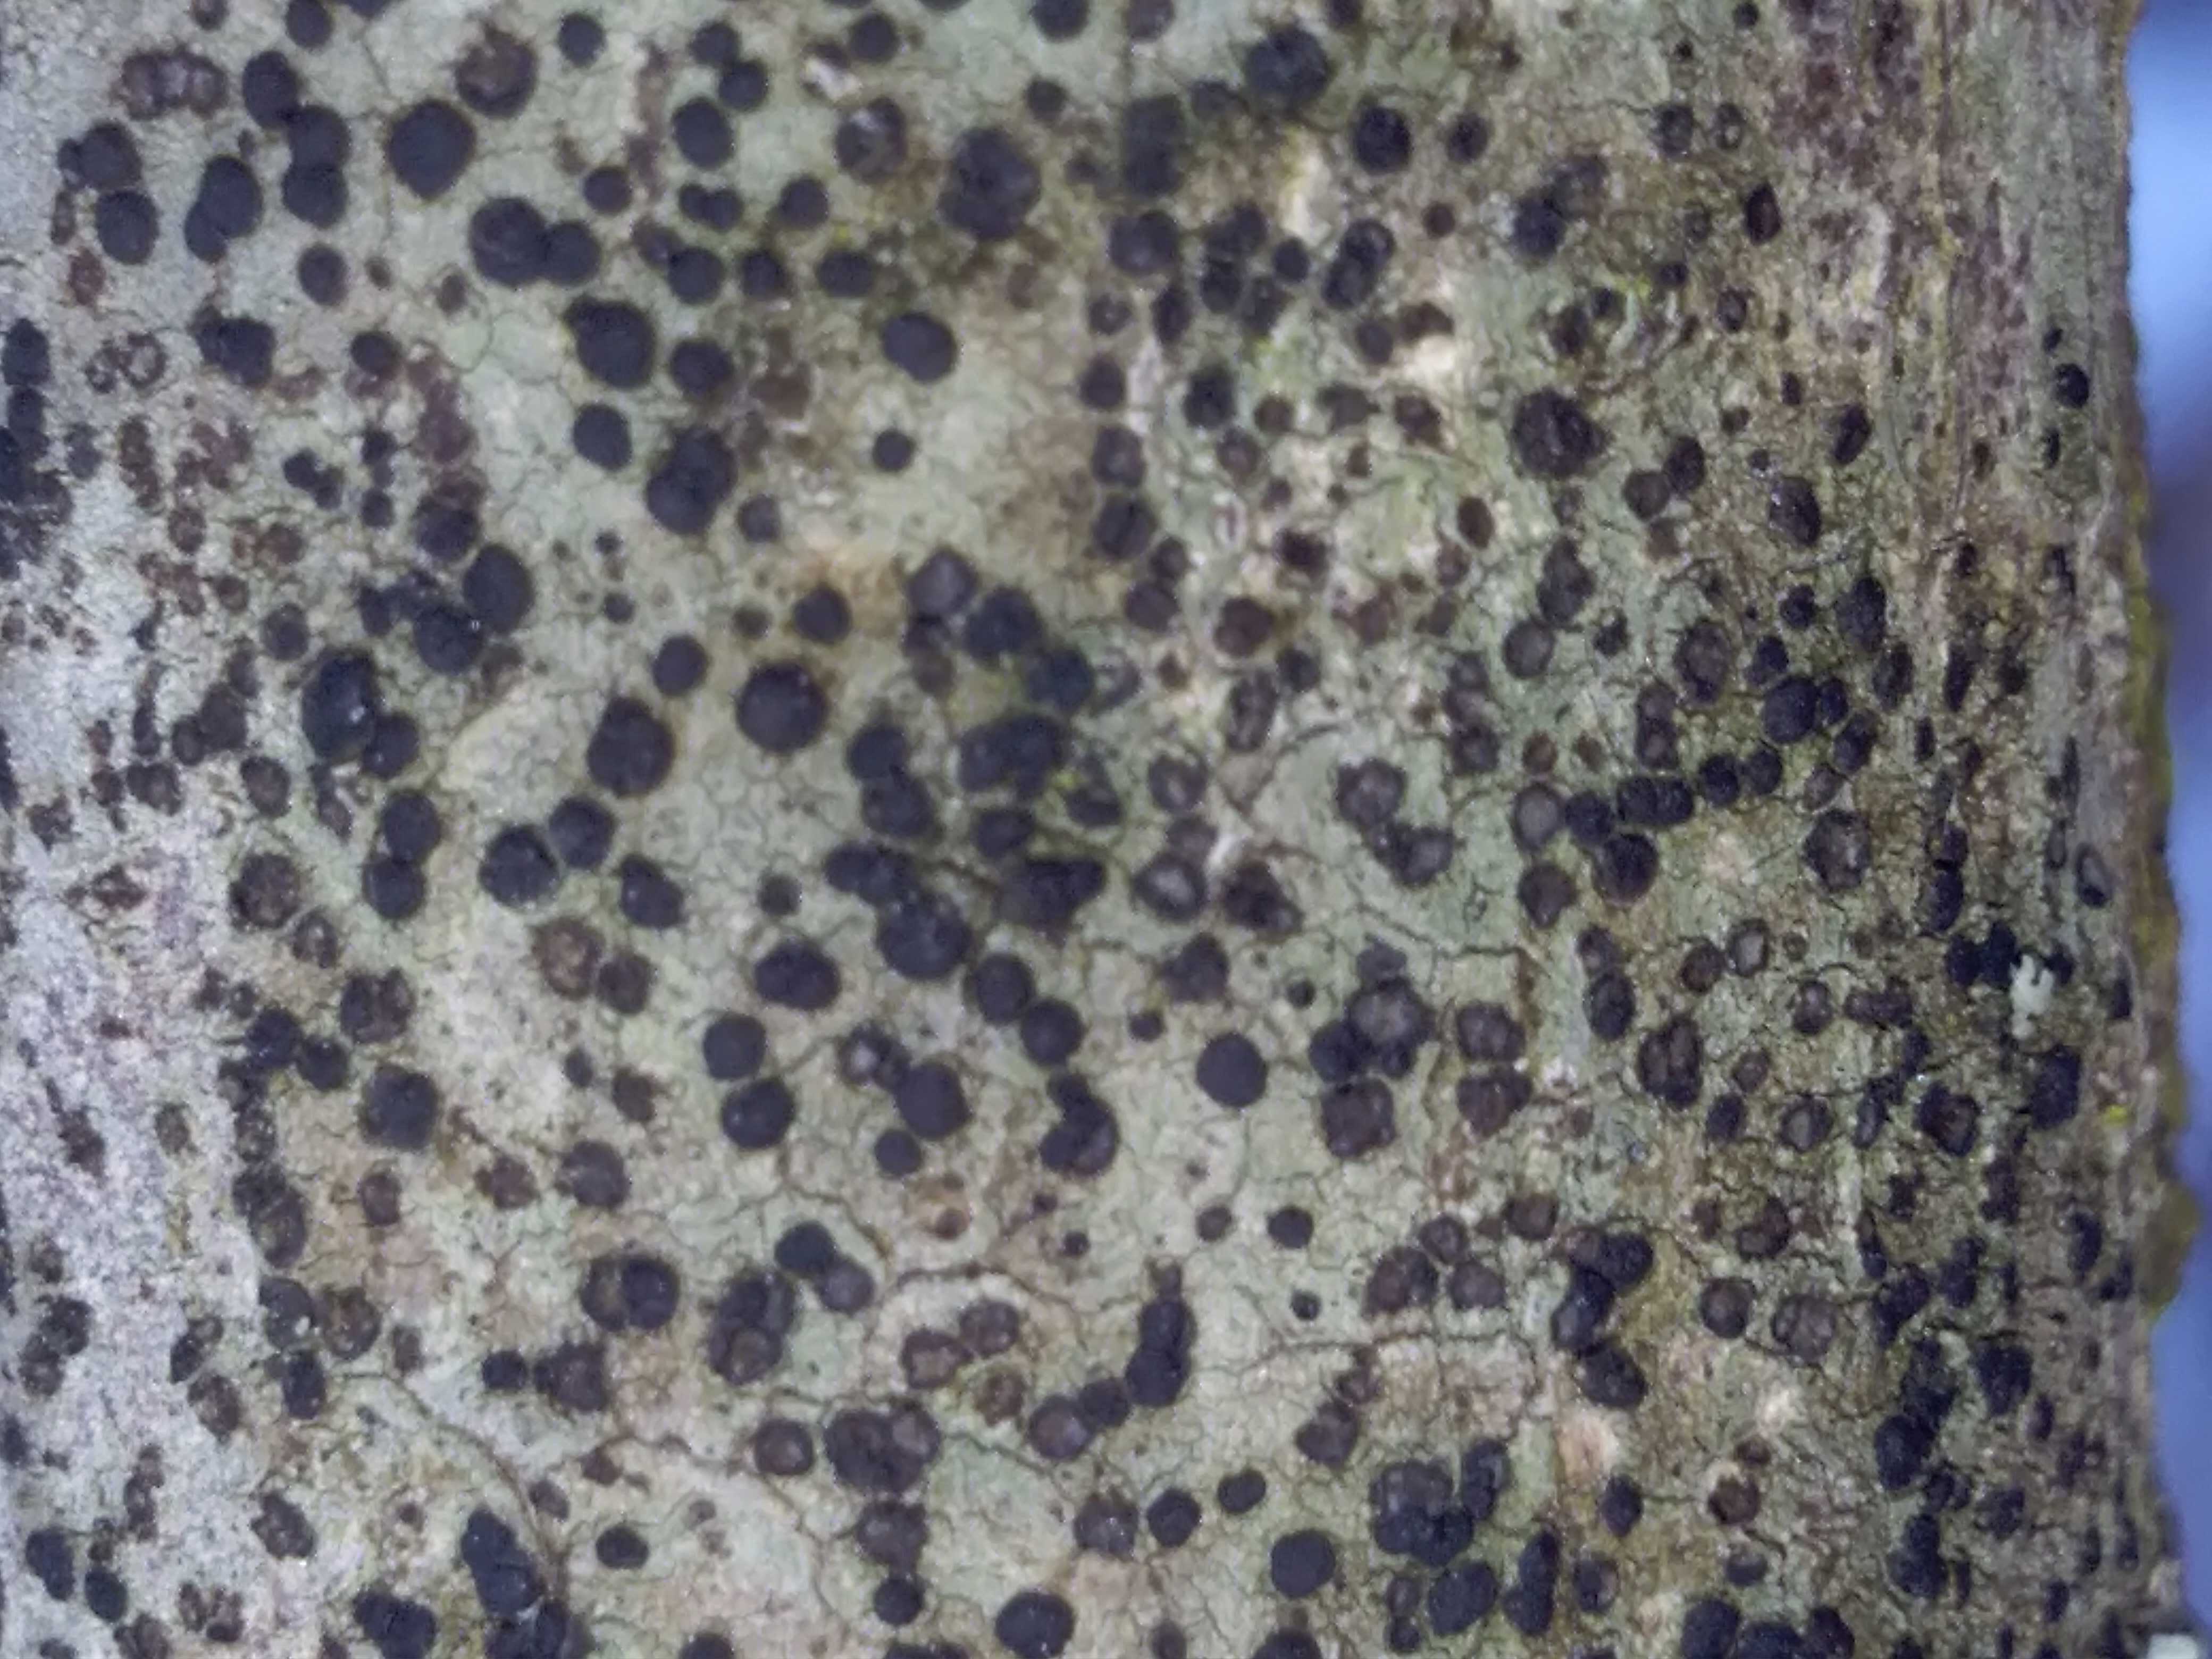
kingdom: Fungi
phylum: Ascomycota
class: Lecanoromycetes
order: Lecanorales
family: Lecanoraceae
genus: Lecidella
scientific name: Lecidella elaeochroma
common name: grågrøn skivelav
